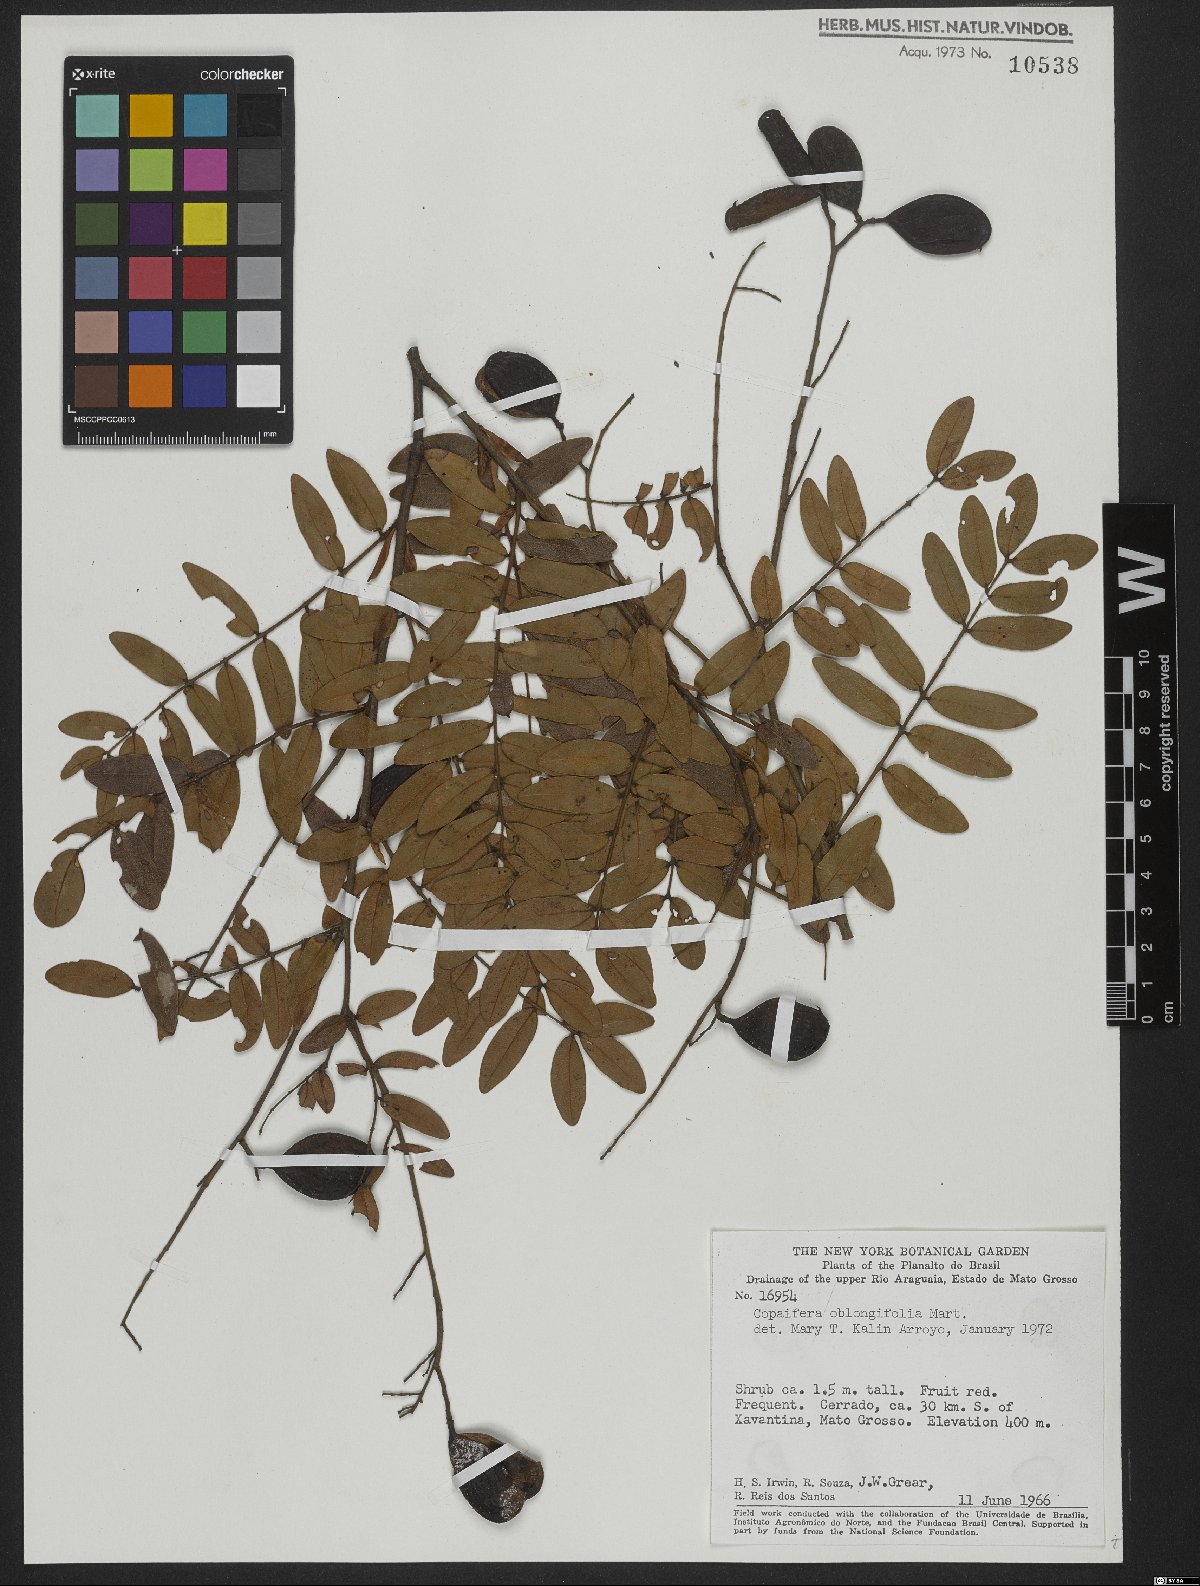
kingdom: Plantae
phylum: Tracheophyta
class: Magnoliopsida
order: Fabales
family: Fabaceae
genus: Copaifera
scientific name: Copaifera oblongifolia
